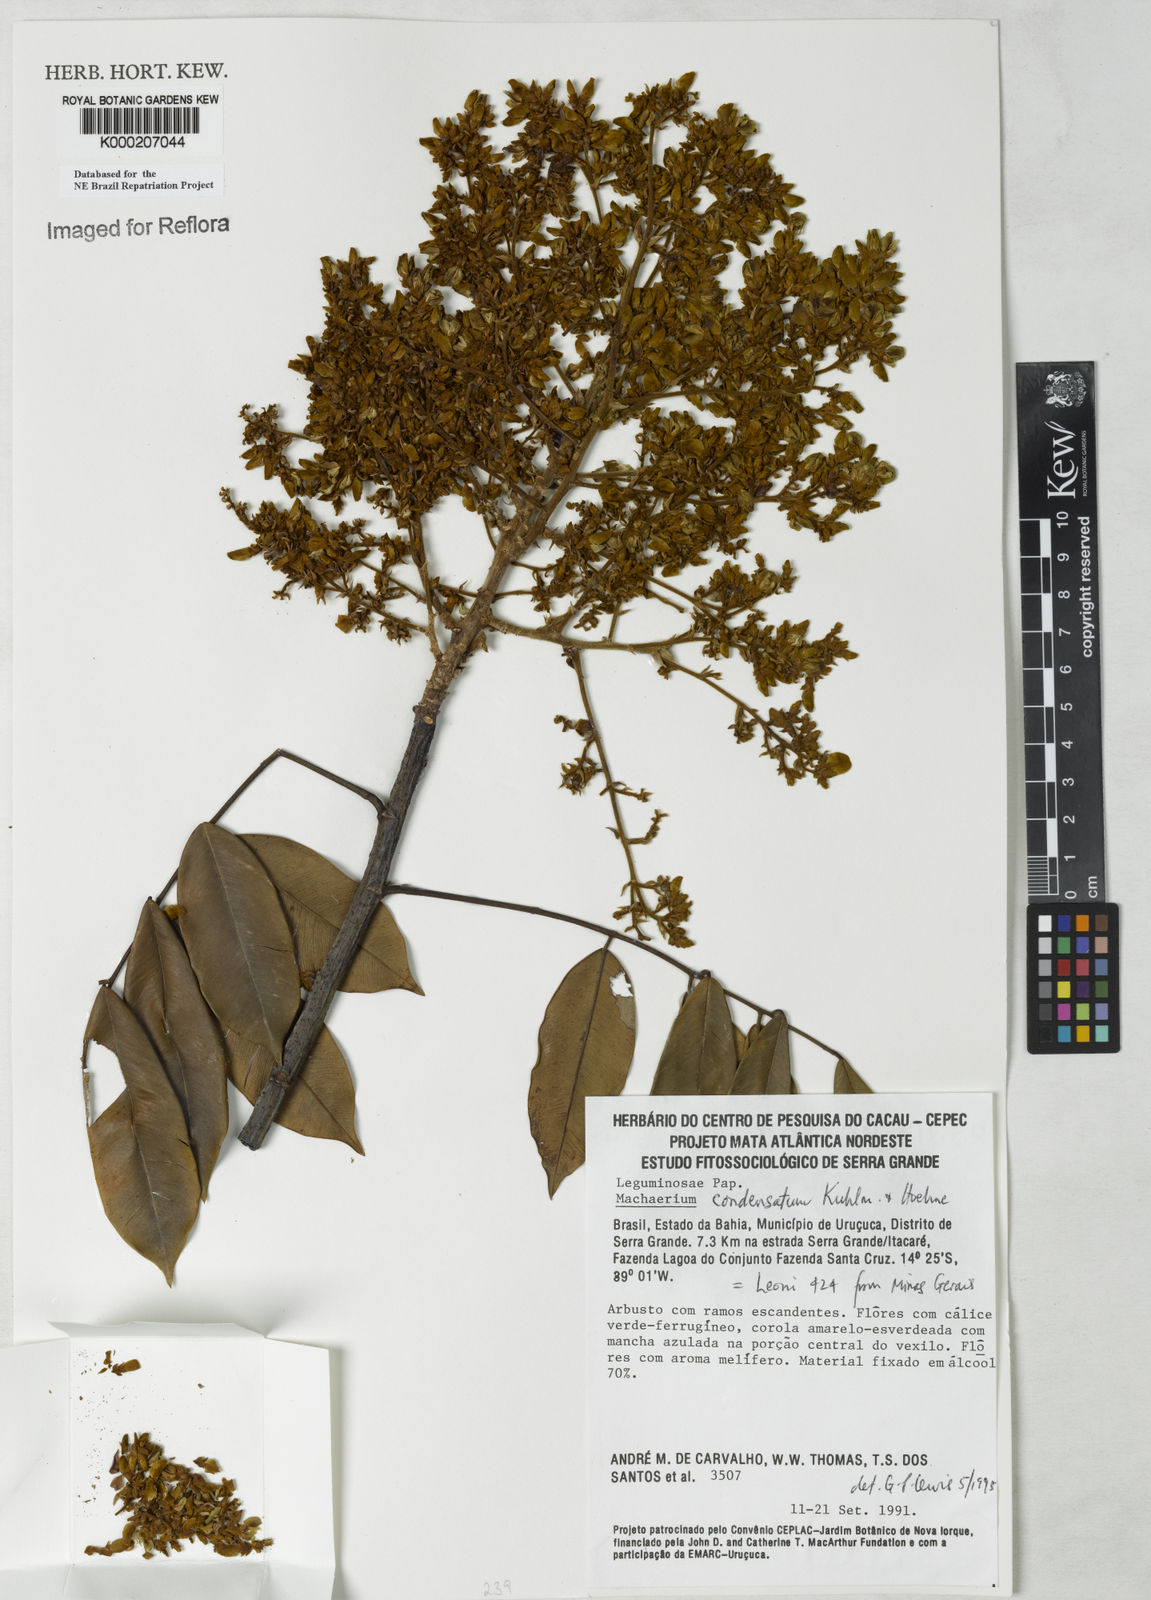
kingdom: Plantae
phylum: Tracheophyta
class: Magnoliopsida
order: Fabales
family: Fabaceae
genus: Machaerium
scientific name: Machaerium condensatum
